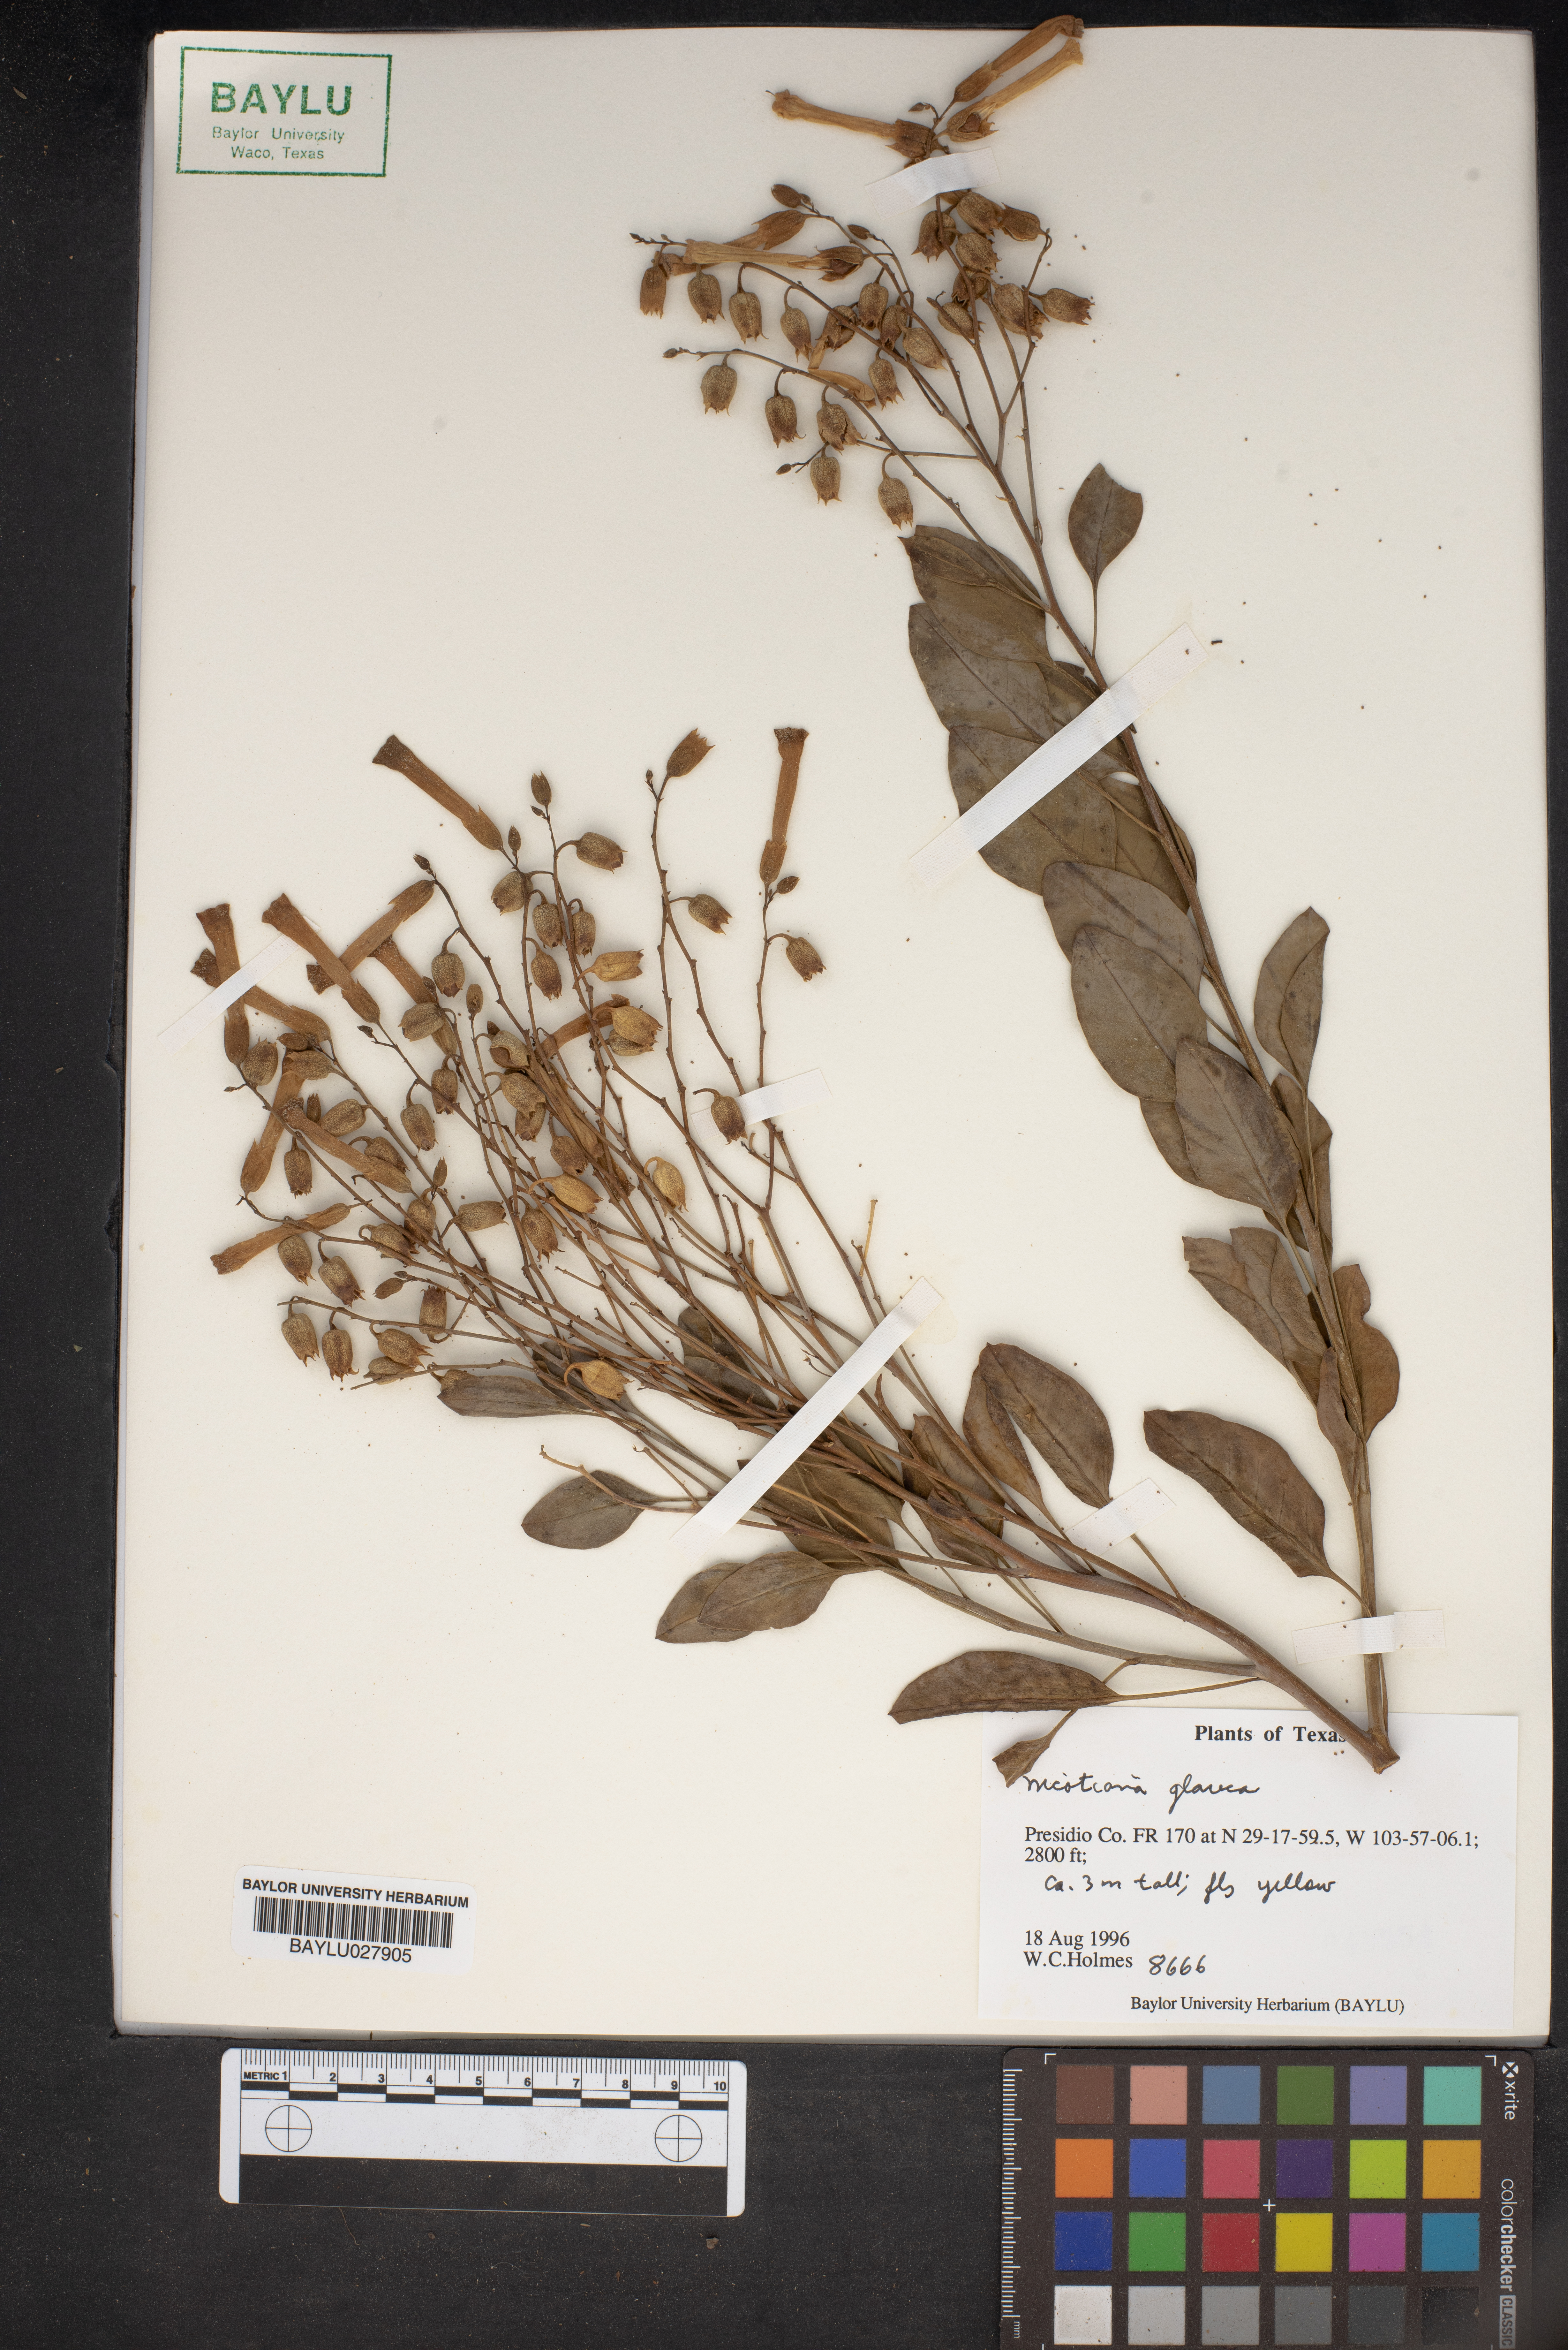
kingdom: Plantae
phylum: Tracheophyta
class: Magnoliopsida
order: Solanales
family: Solanaceae
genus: Nicotiana
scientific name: Nicotiana glauca
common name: Tree tobacco
